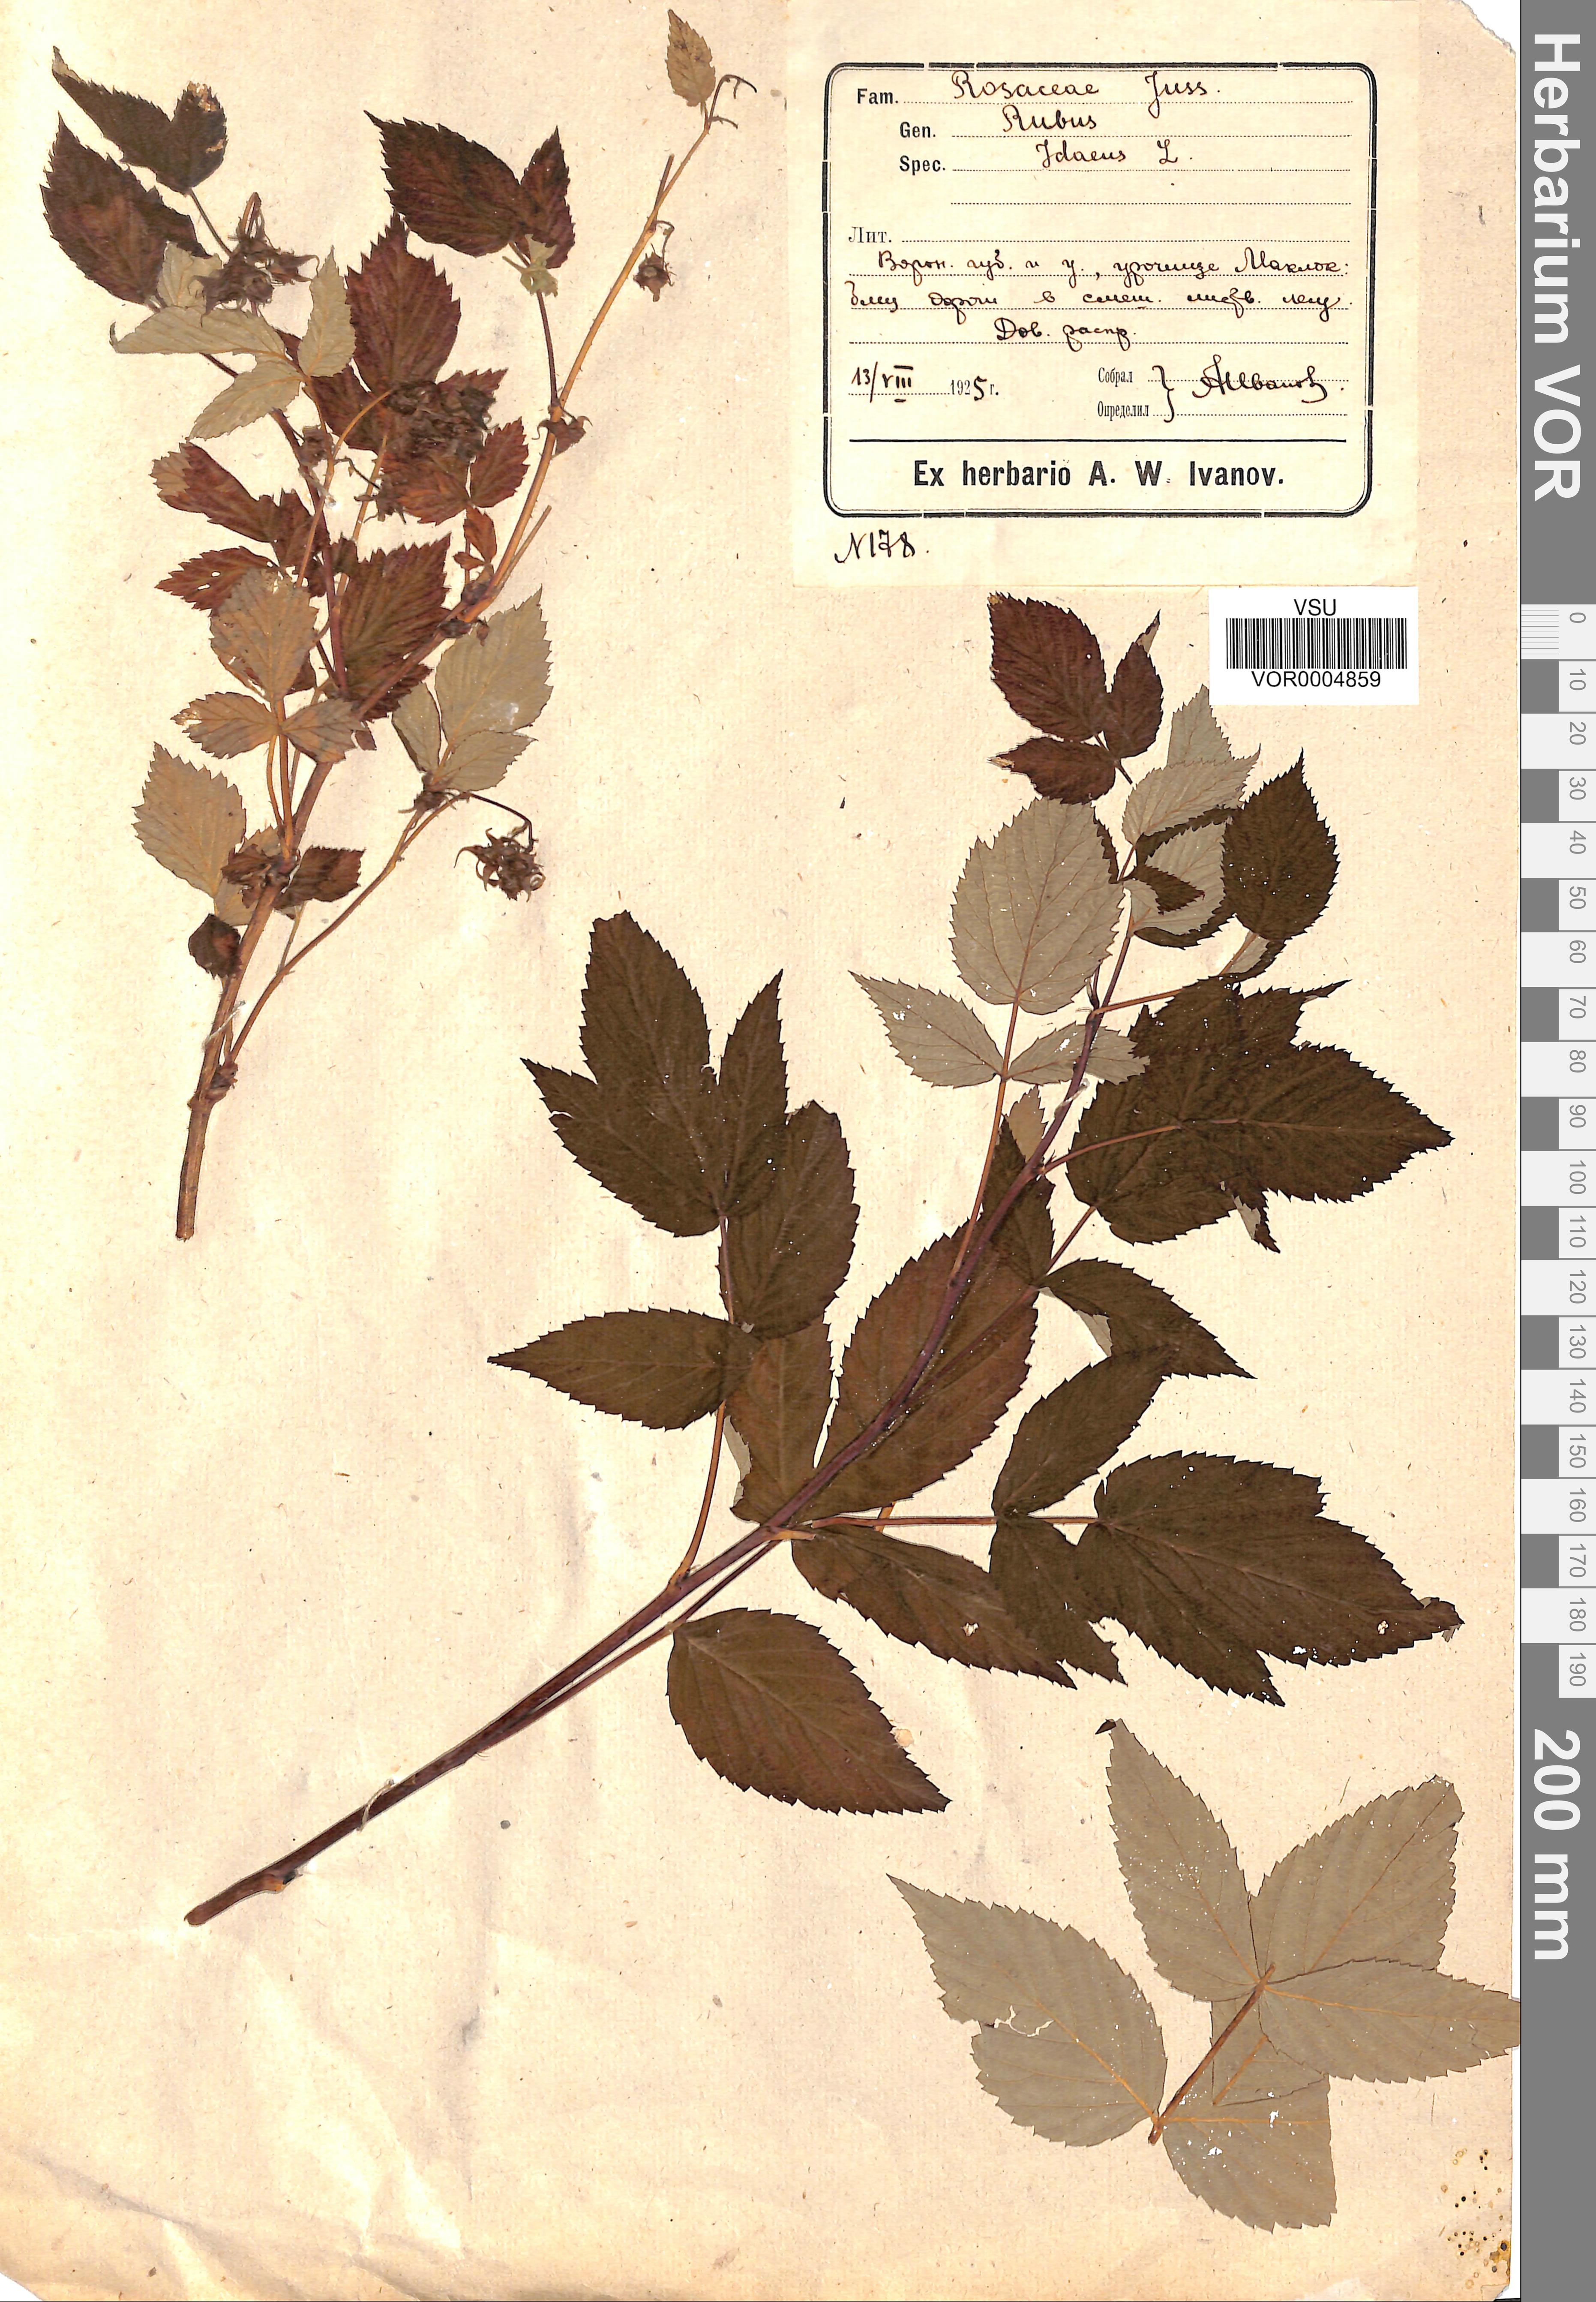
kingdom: Plantae
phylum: Tracheophyta
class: Magnoliopsida
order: Rosales
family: Rosaceae
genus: Rubus
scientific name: Rubus idaeus
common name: Raspberry
